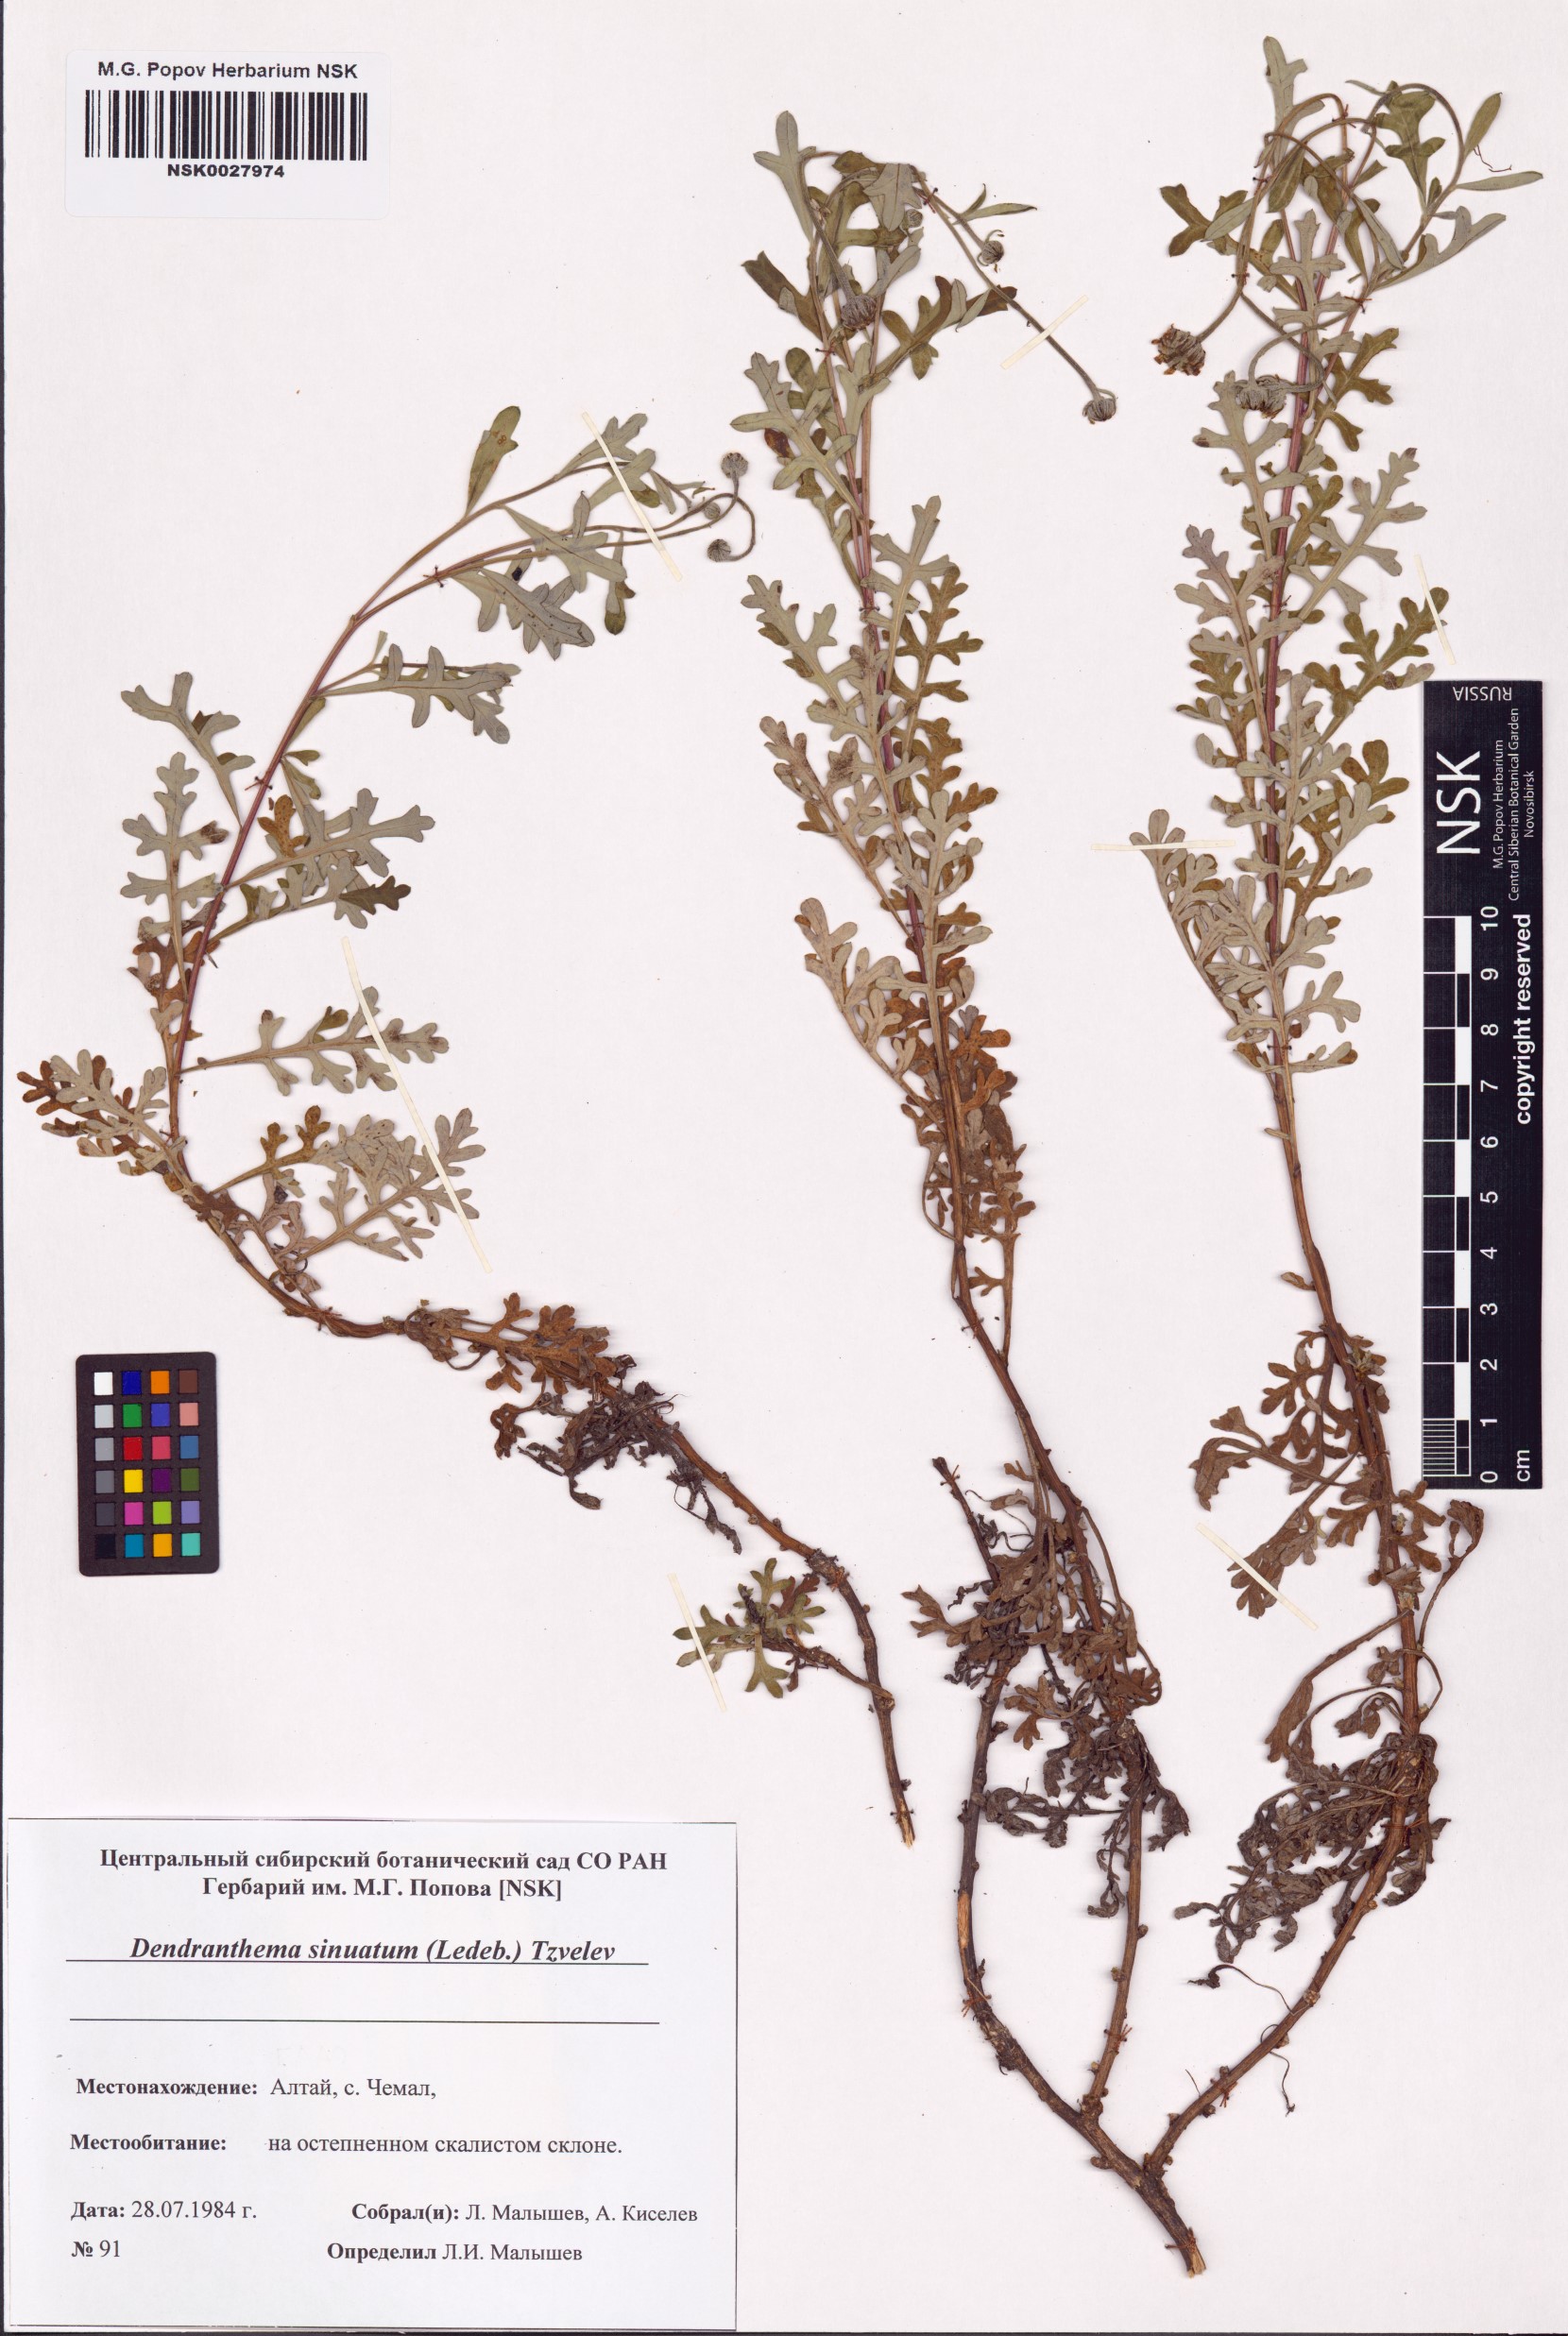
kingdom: Plantae
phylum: Tracheophyta
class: Magnoliopsida
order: Asterales
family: Asteraceae
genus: Chrysanthemum
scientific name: Chrysanthemum sinuatum
